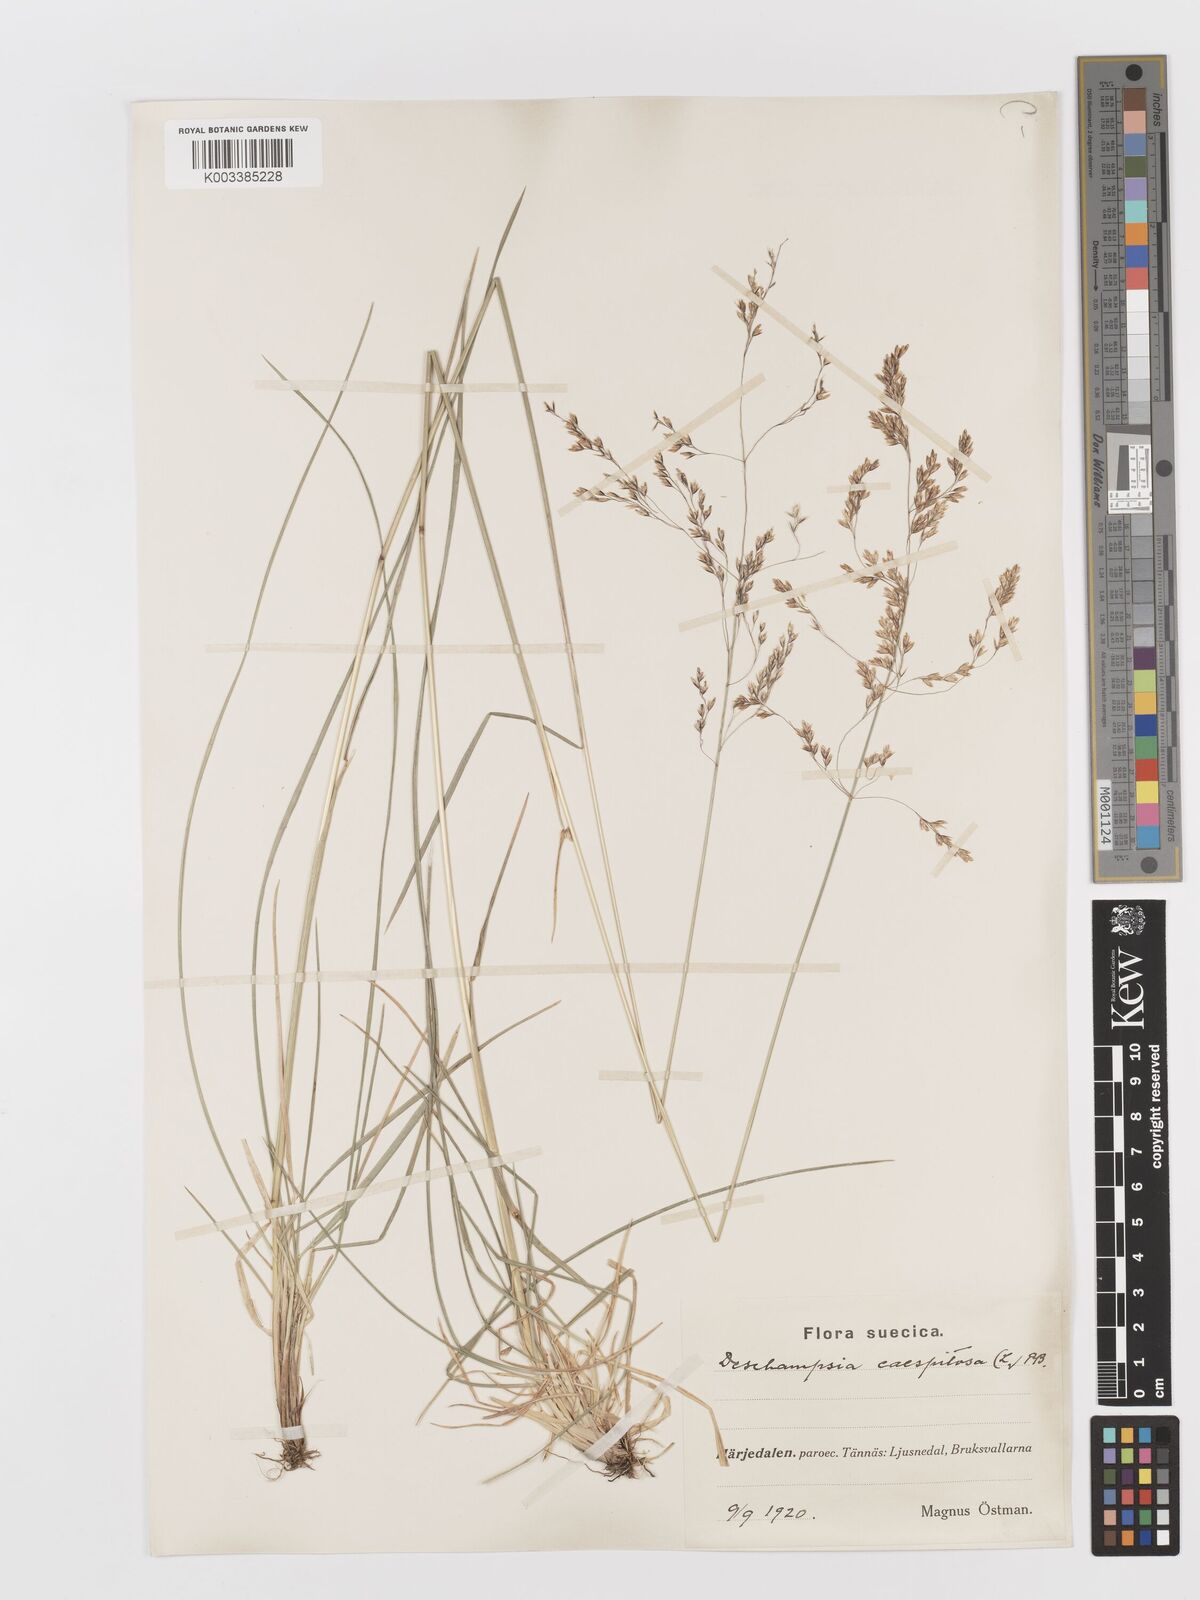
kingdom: Plantae
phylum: Tracheophyta
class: Liliopsida
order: Poales
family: Poaceae
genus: Deschampsia
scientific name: Deschampsia cespitosa
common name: Tufted hair-grass
